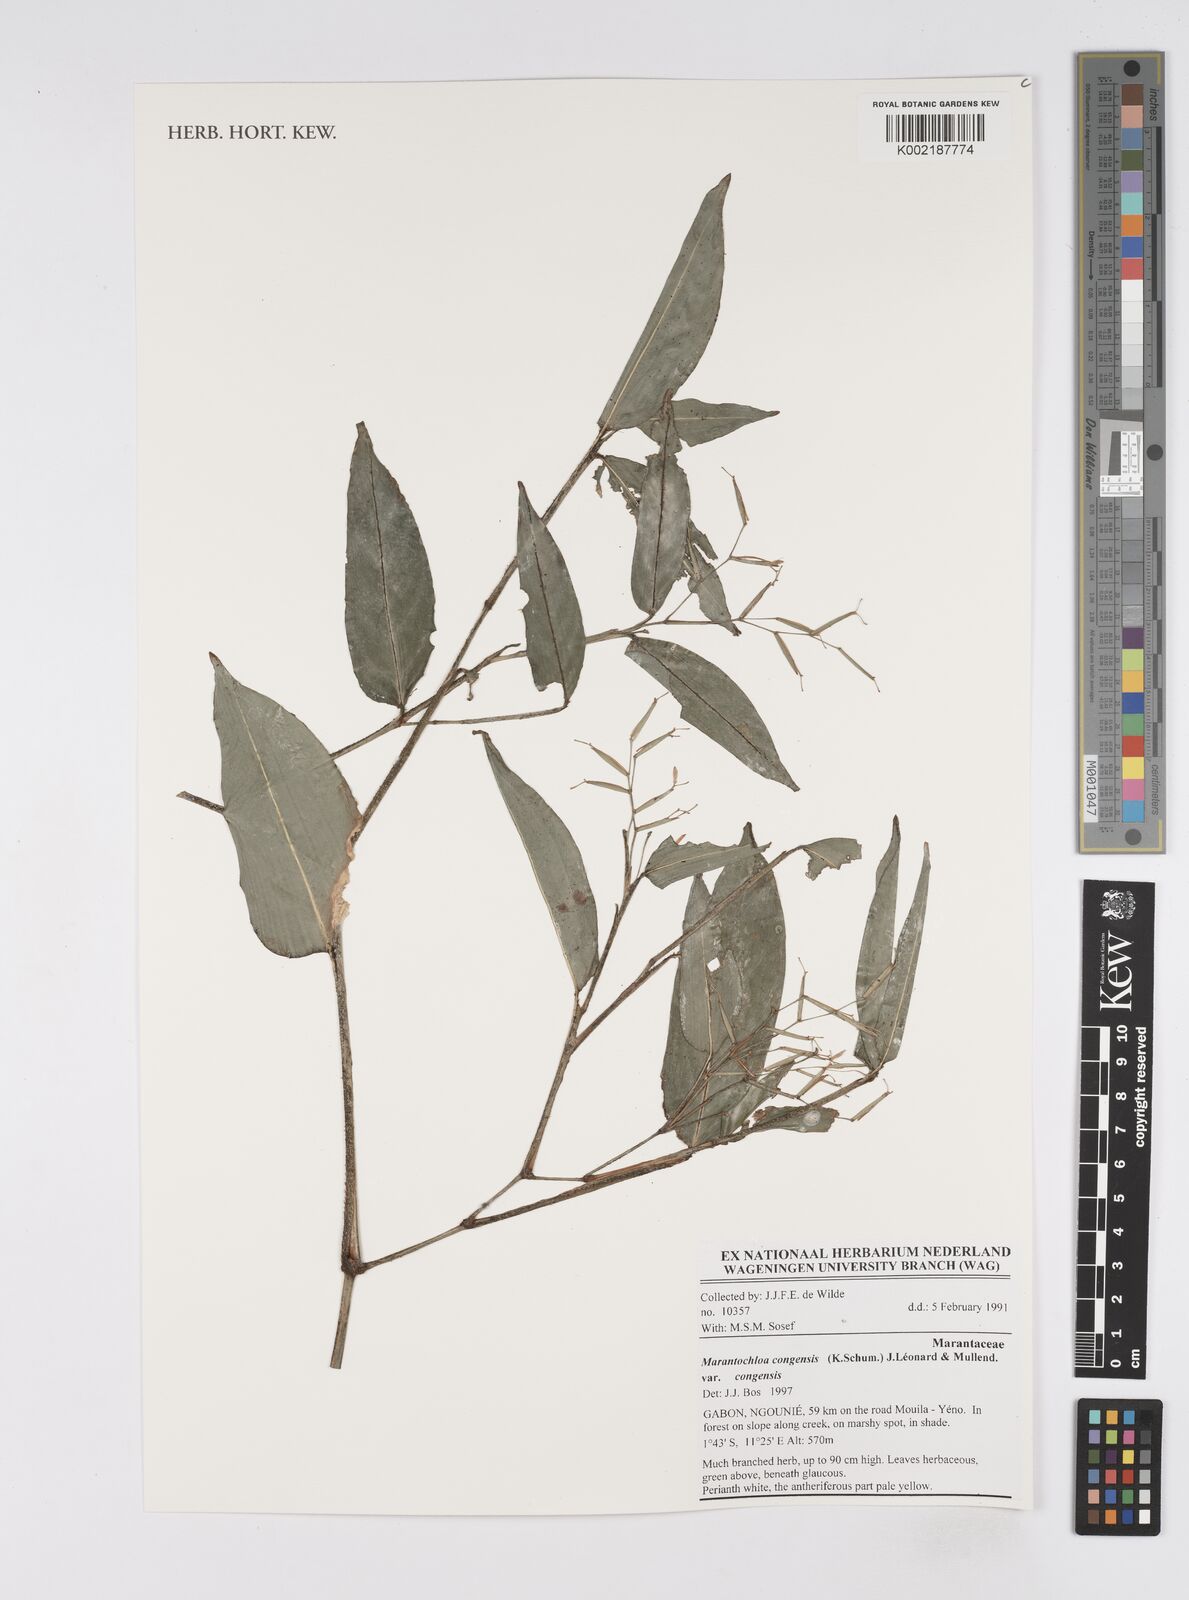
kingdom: Plantae
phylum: Tracheophyta
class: Liliopsida
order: Zingiberales
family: Marantaceae
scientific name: Marantaceae
